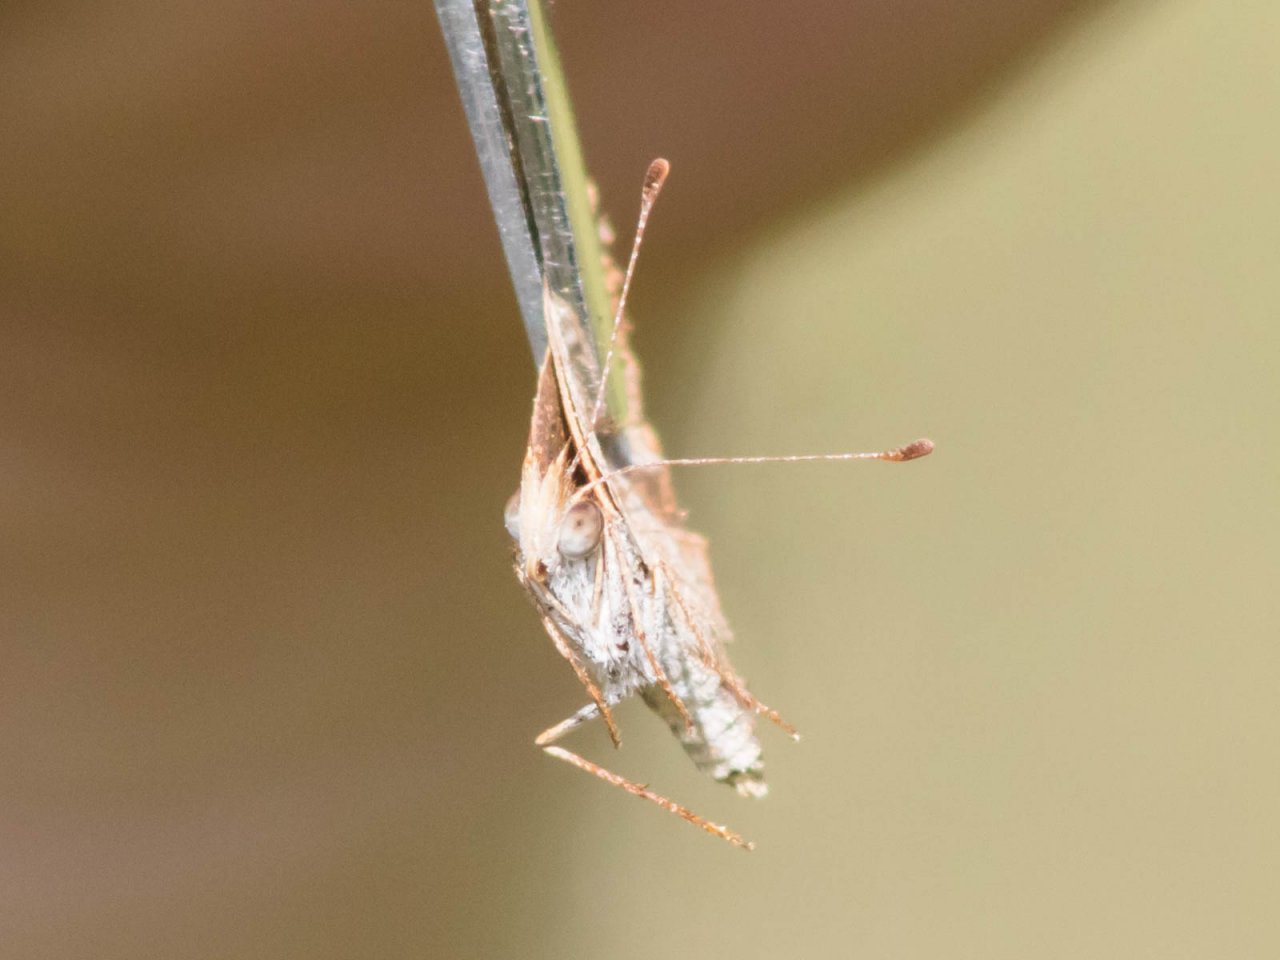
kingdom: Animalia
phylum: Arthropoda
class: Insecta
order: Lepidoptera
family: Nymphalidae
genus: Phyciodes
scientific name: Phyciodes tharos
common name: Northern Crescent
